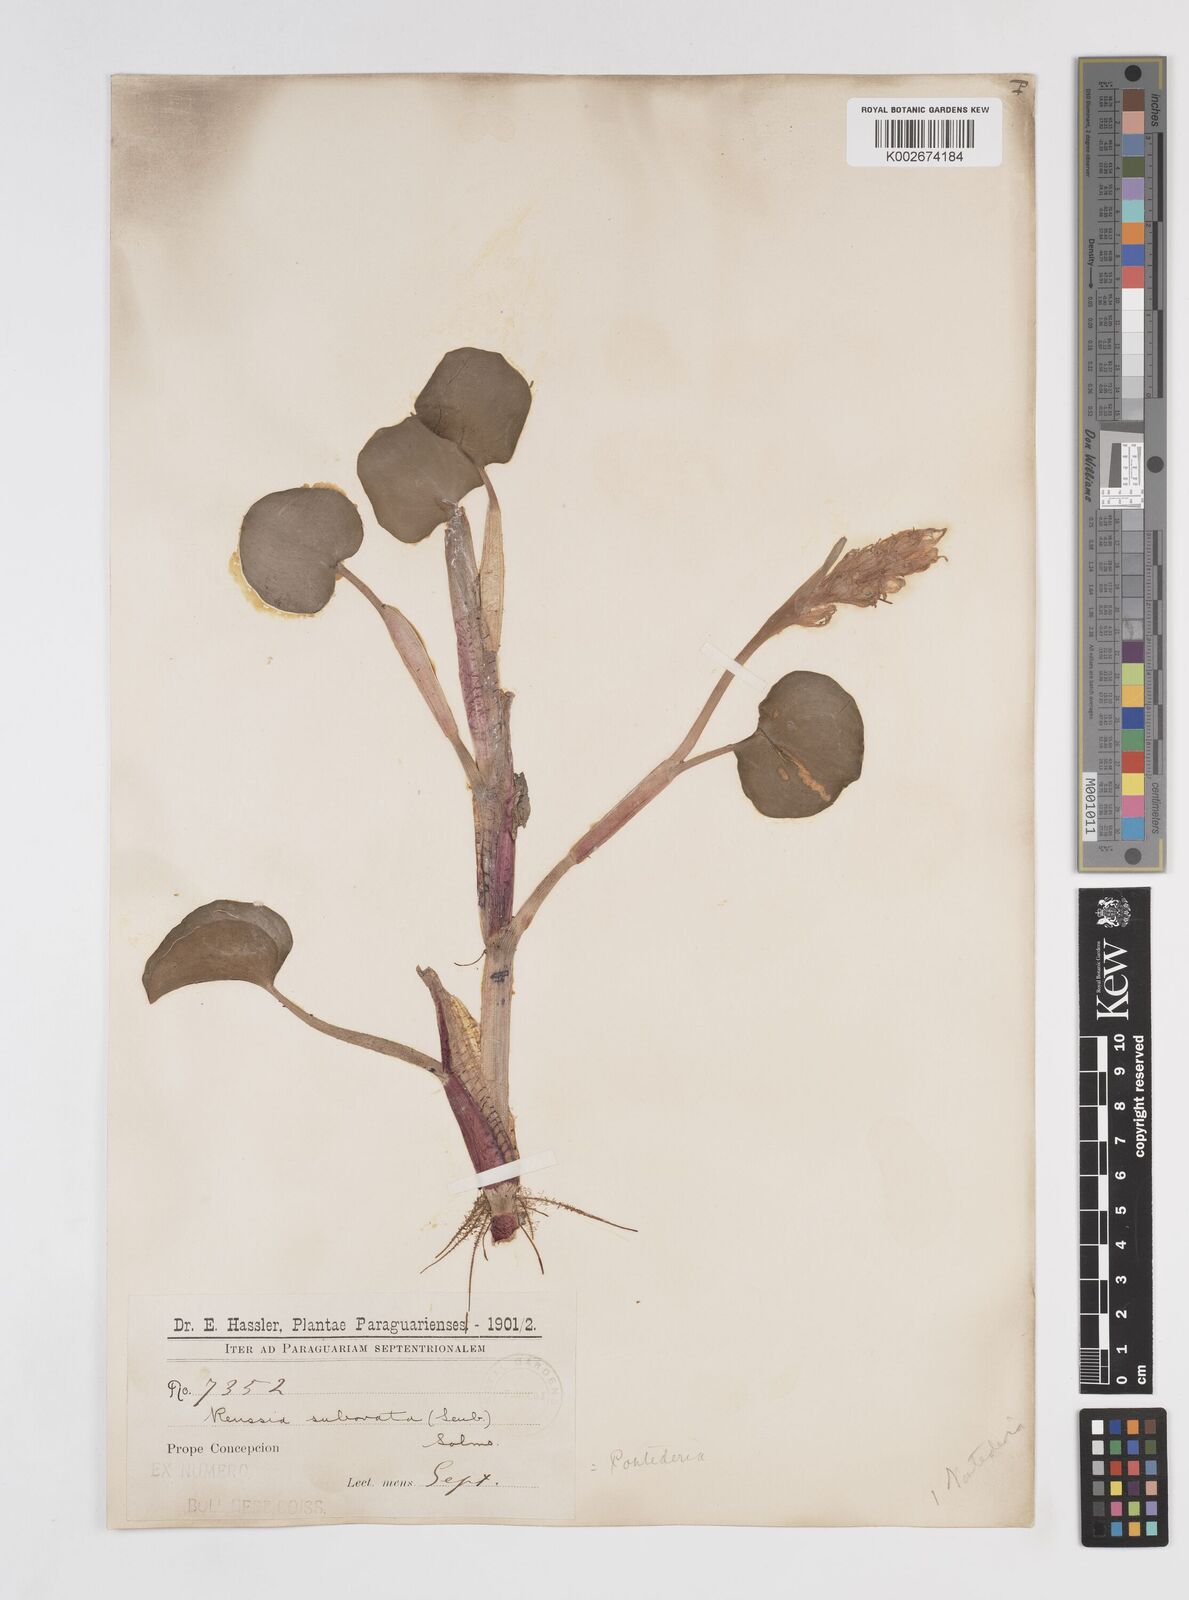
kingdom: Plantae
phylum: Tracheophyta
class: Liliopsida
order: Commelinales
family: Pontederiaceae
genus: Pontederia
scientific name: Pontederia subovata
